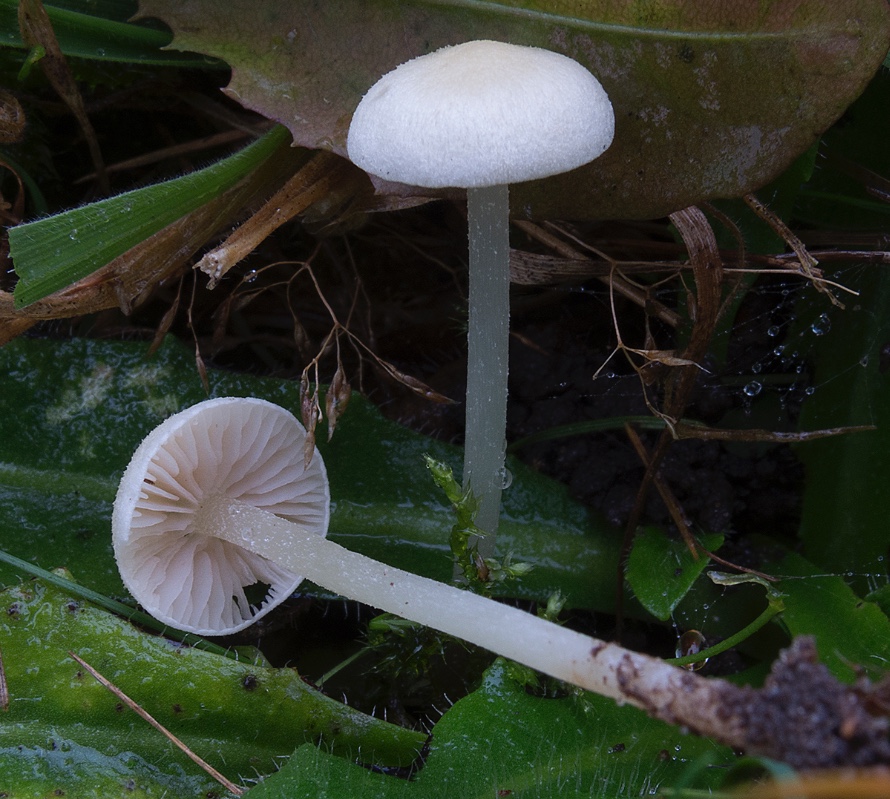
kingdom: Fungi
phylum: Basidiomycota
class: Agaricomycetes
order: Agaricales
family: Entolomataceae
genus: Entoloma
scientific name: Entoloma sericellum
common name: silkehvid rødblad
